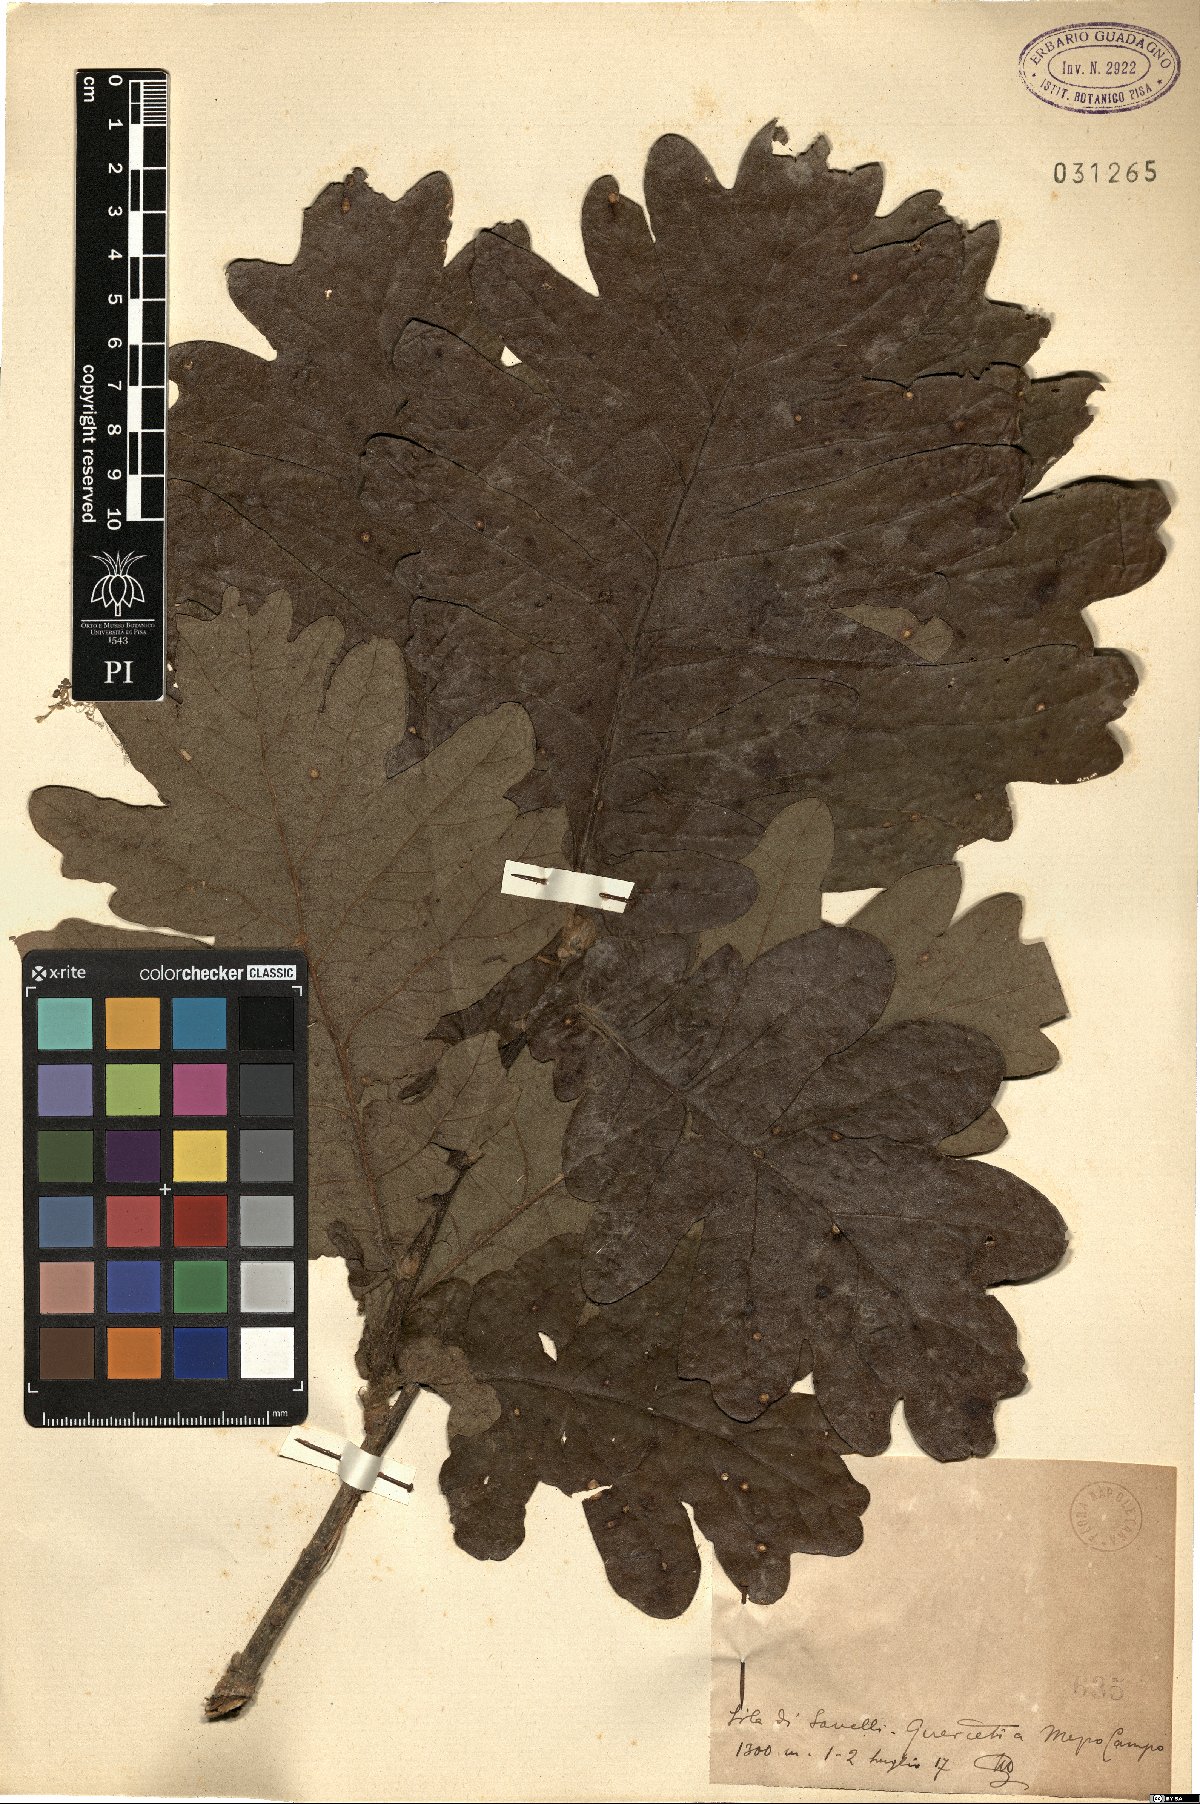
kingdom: Plantae
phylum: Tracheophyta
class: Magnoliopsida
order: Fagales
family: Fagaceae
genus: Quercus
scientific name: Quercus
